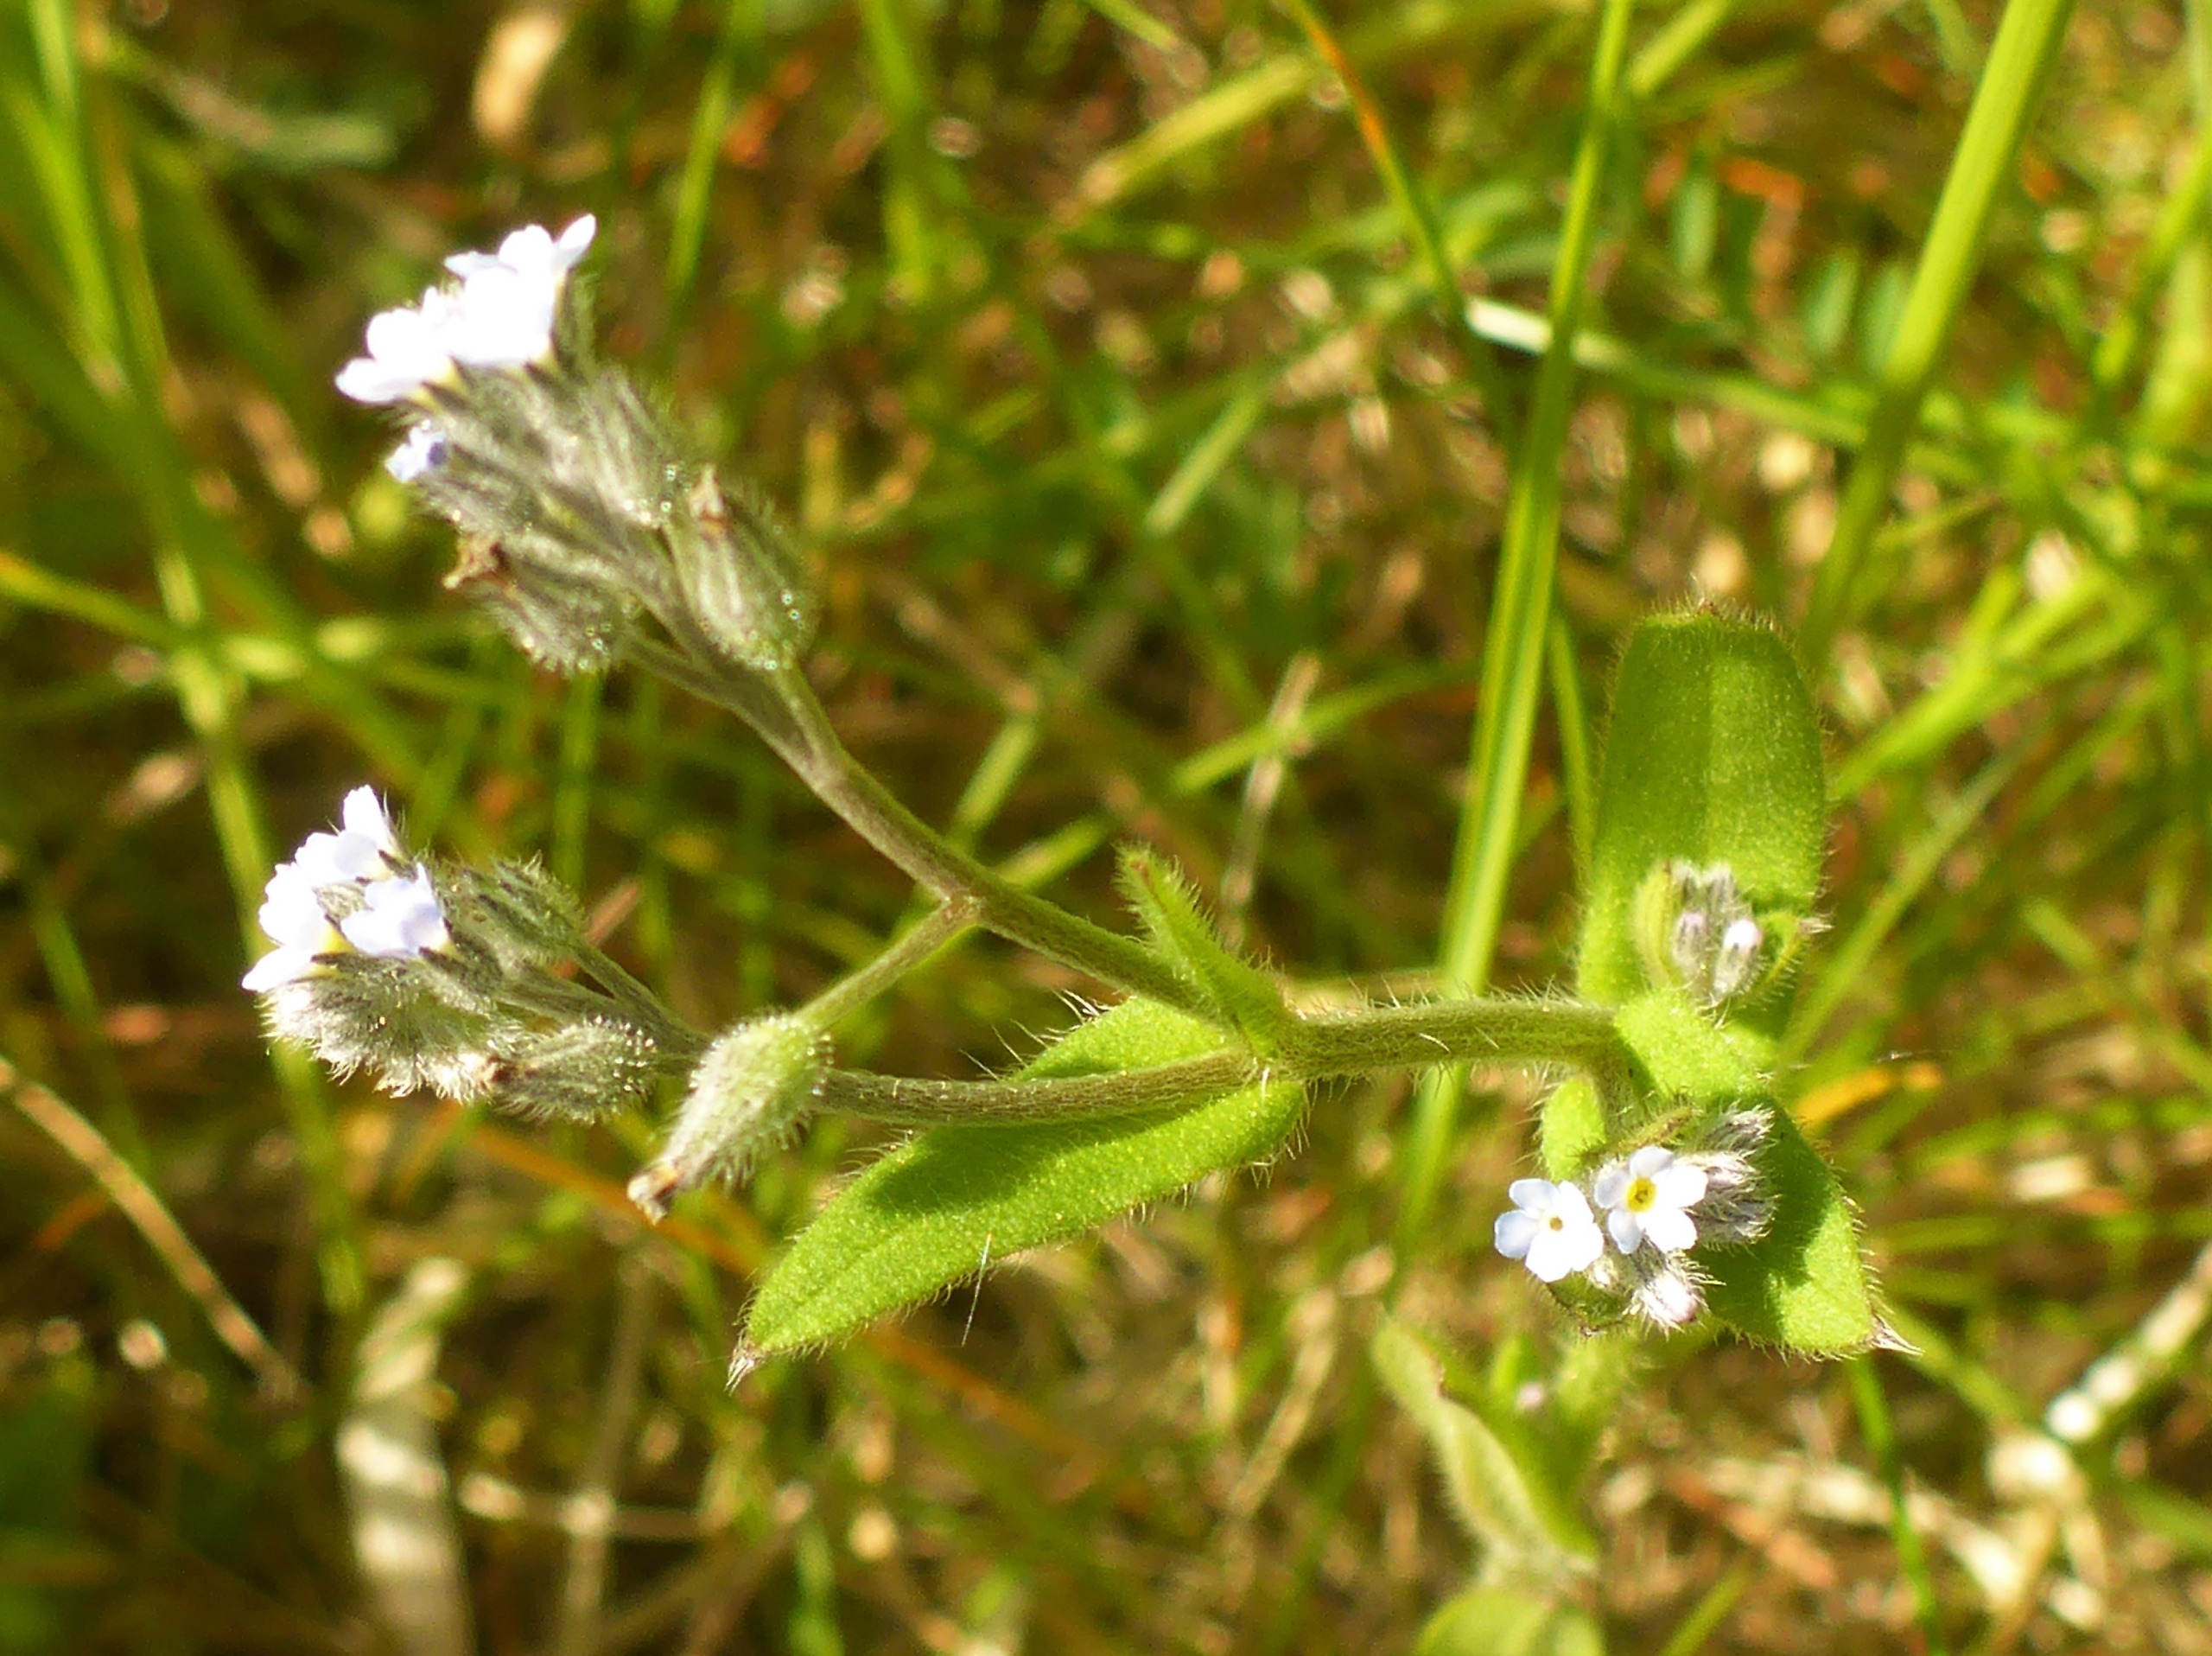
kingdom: Plantae
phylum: Tracheophyta
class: Magnoliopsida
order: Boraginales
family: Boraginaceae
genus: Myosotis
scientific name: Myosotis arvensis
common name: Mark-forglemmigej
